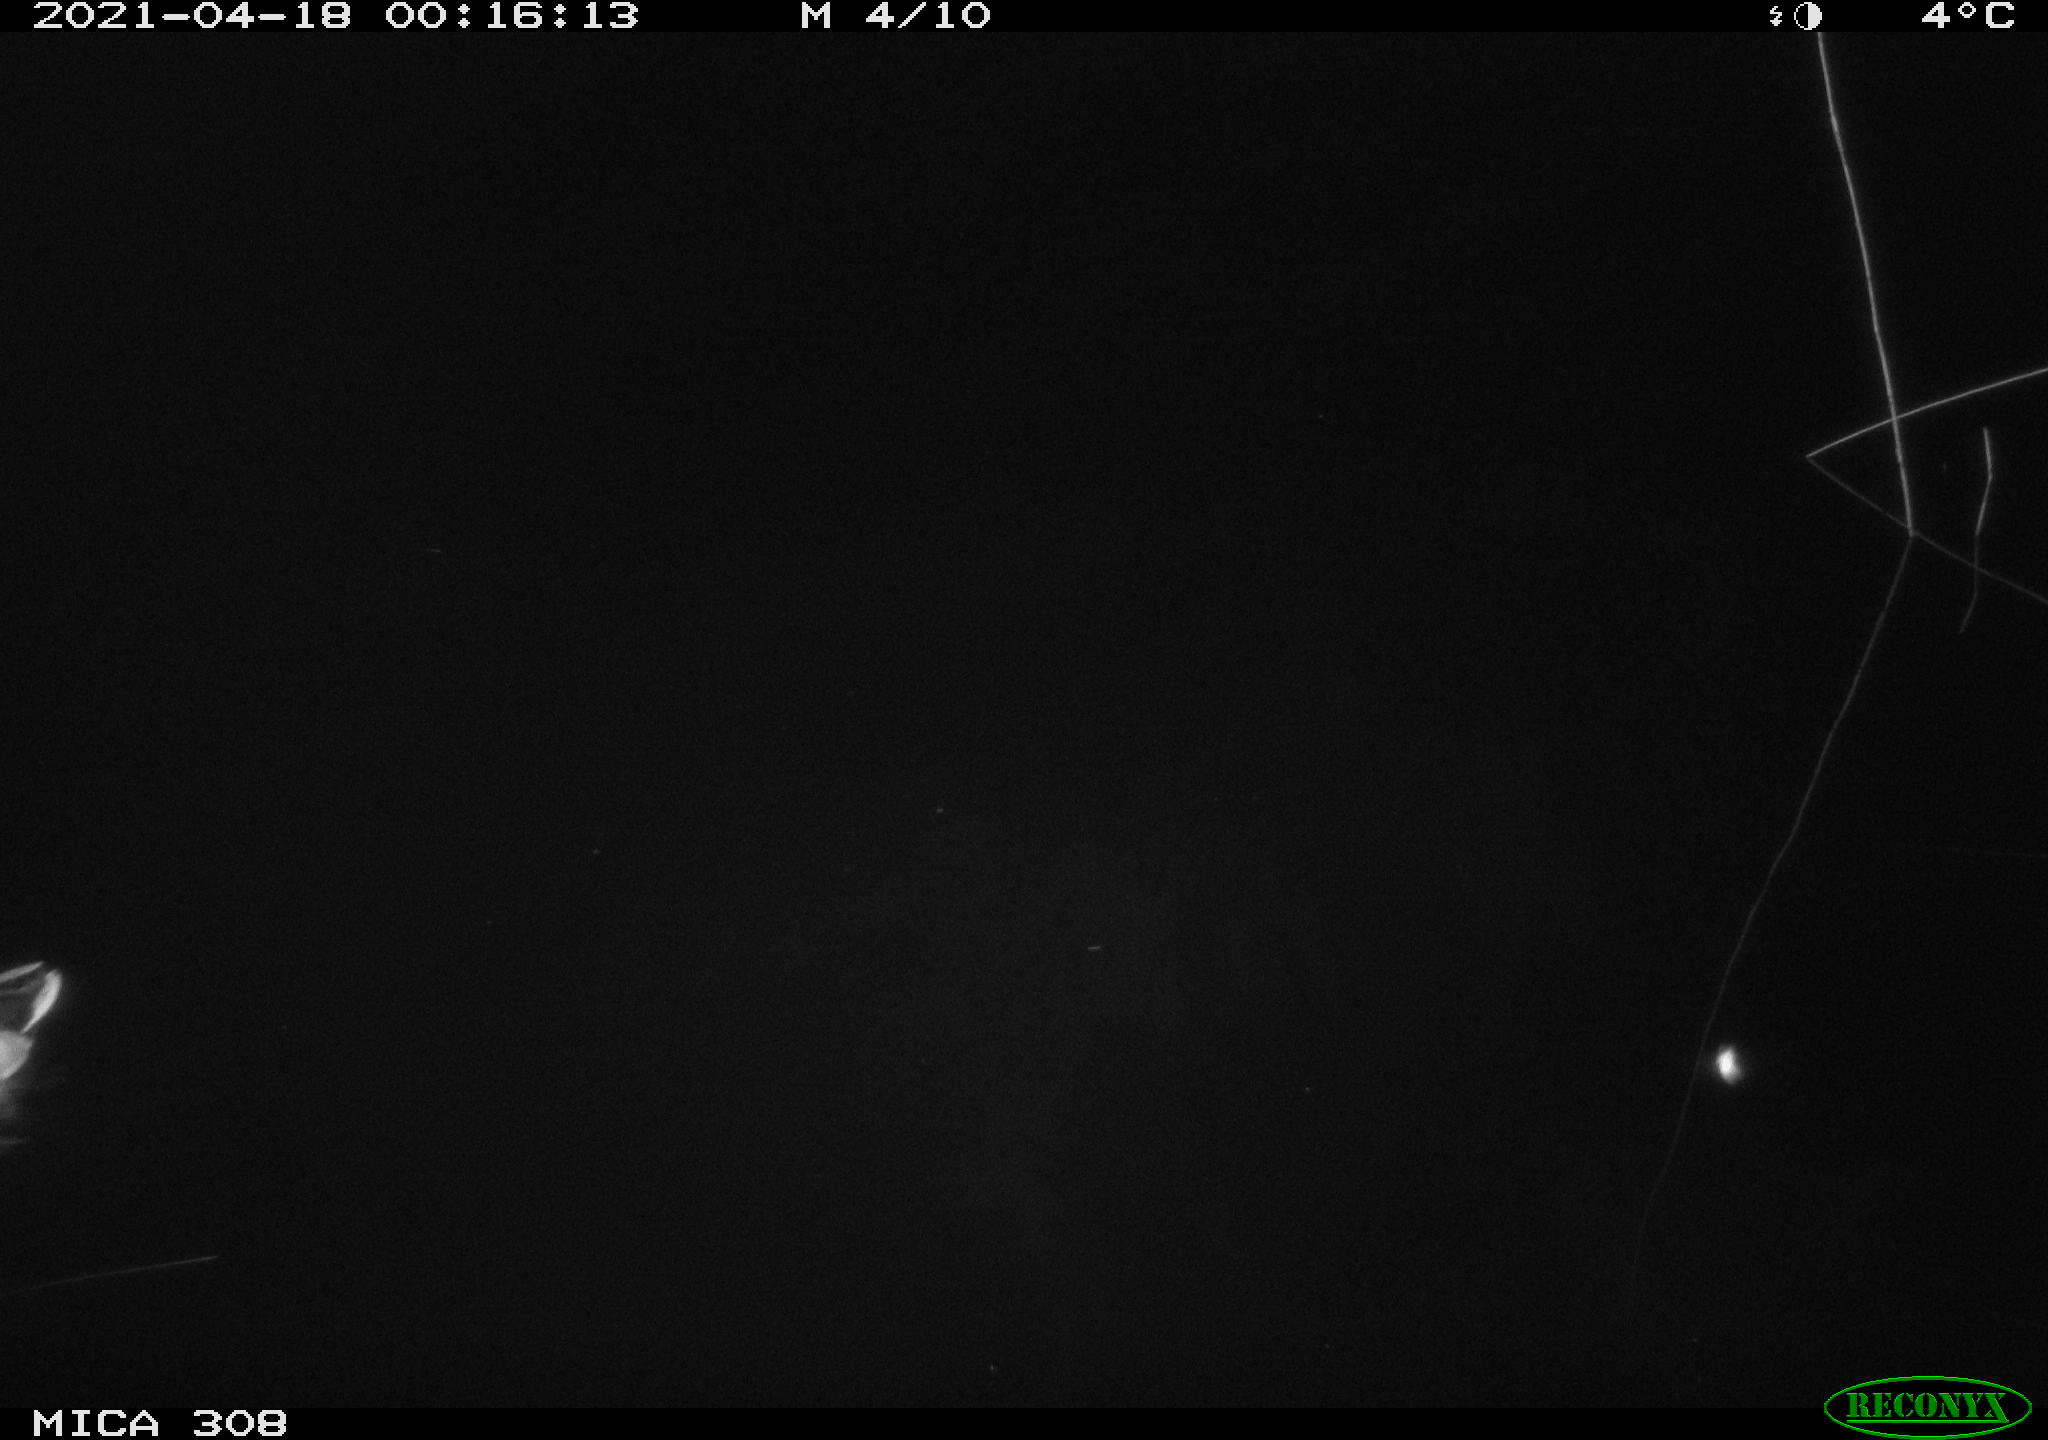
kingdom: Animalia
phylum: Chordata
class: Aves
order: Anseriformes
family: Anatidae
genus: Anas
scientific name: Anas platyrhynchos
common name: Mallard
